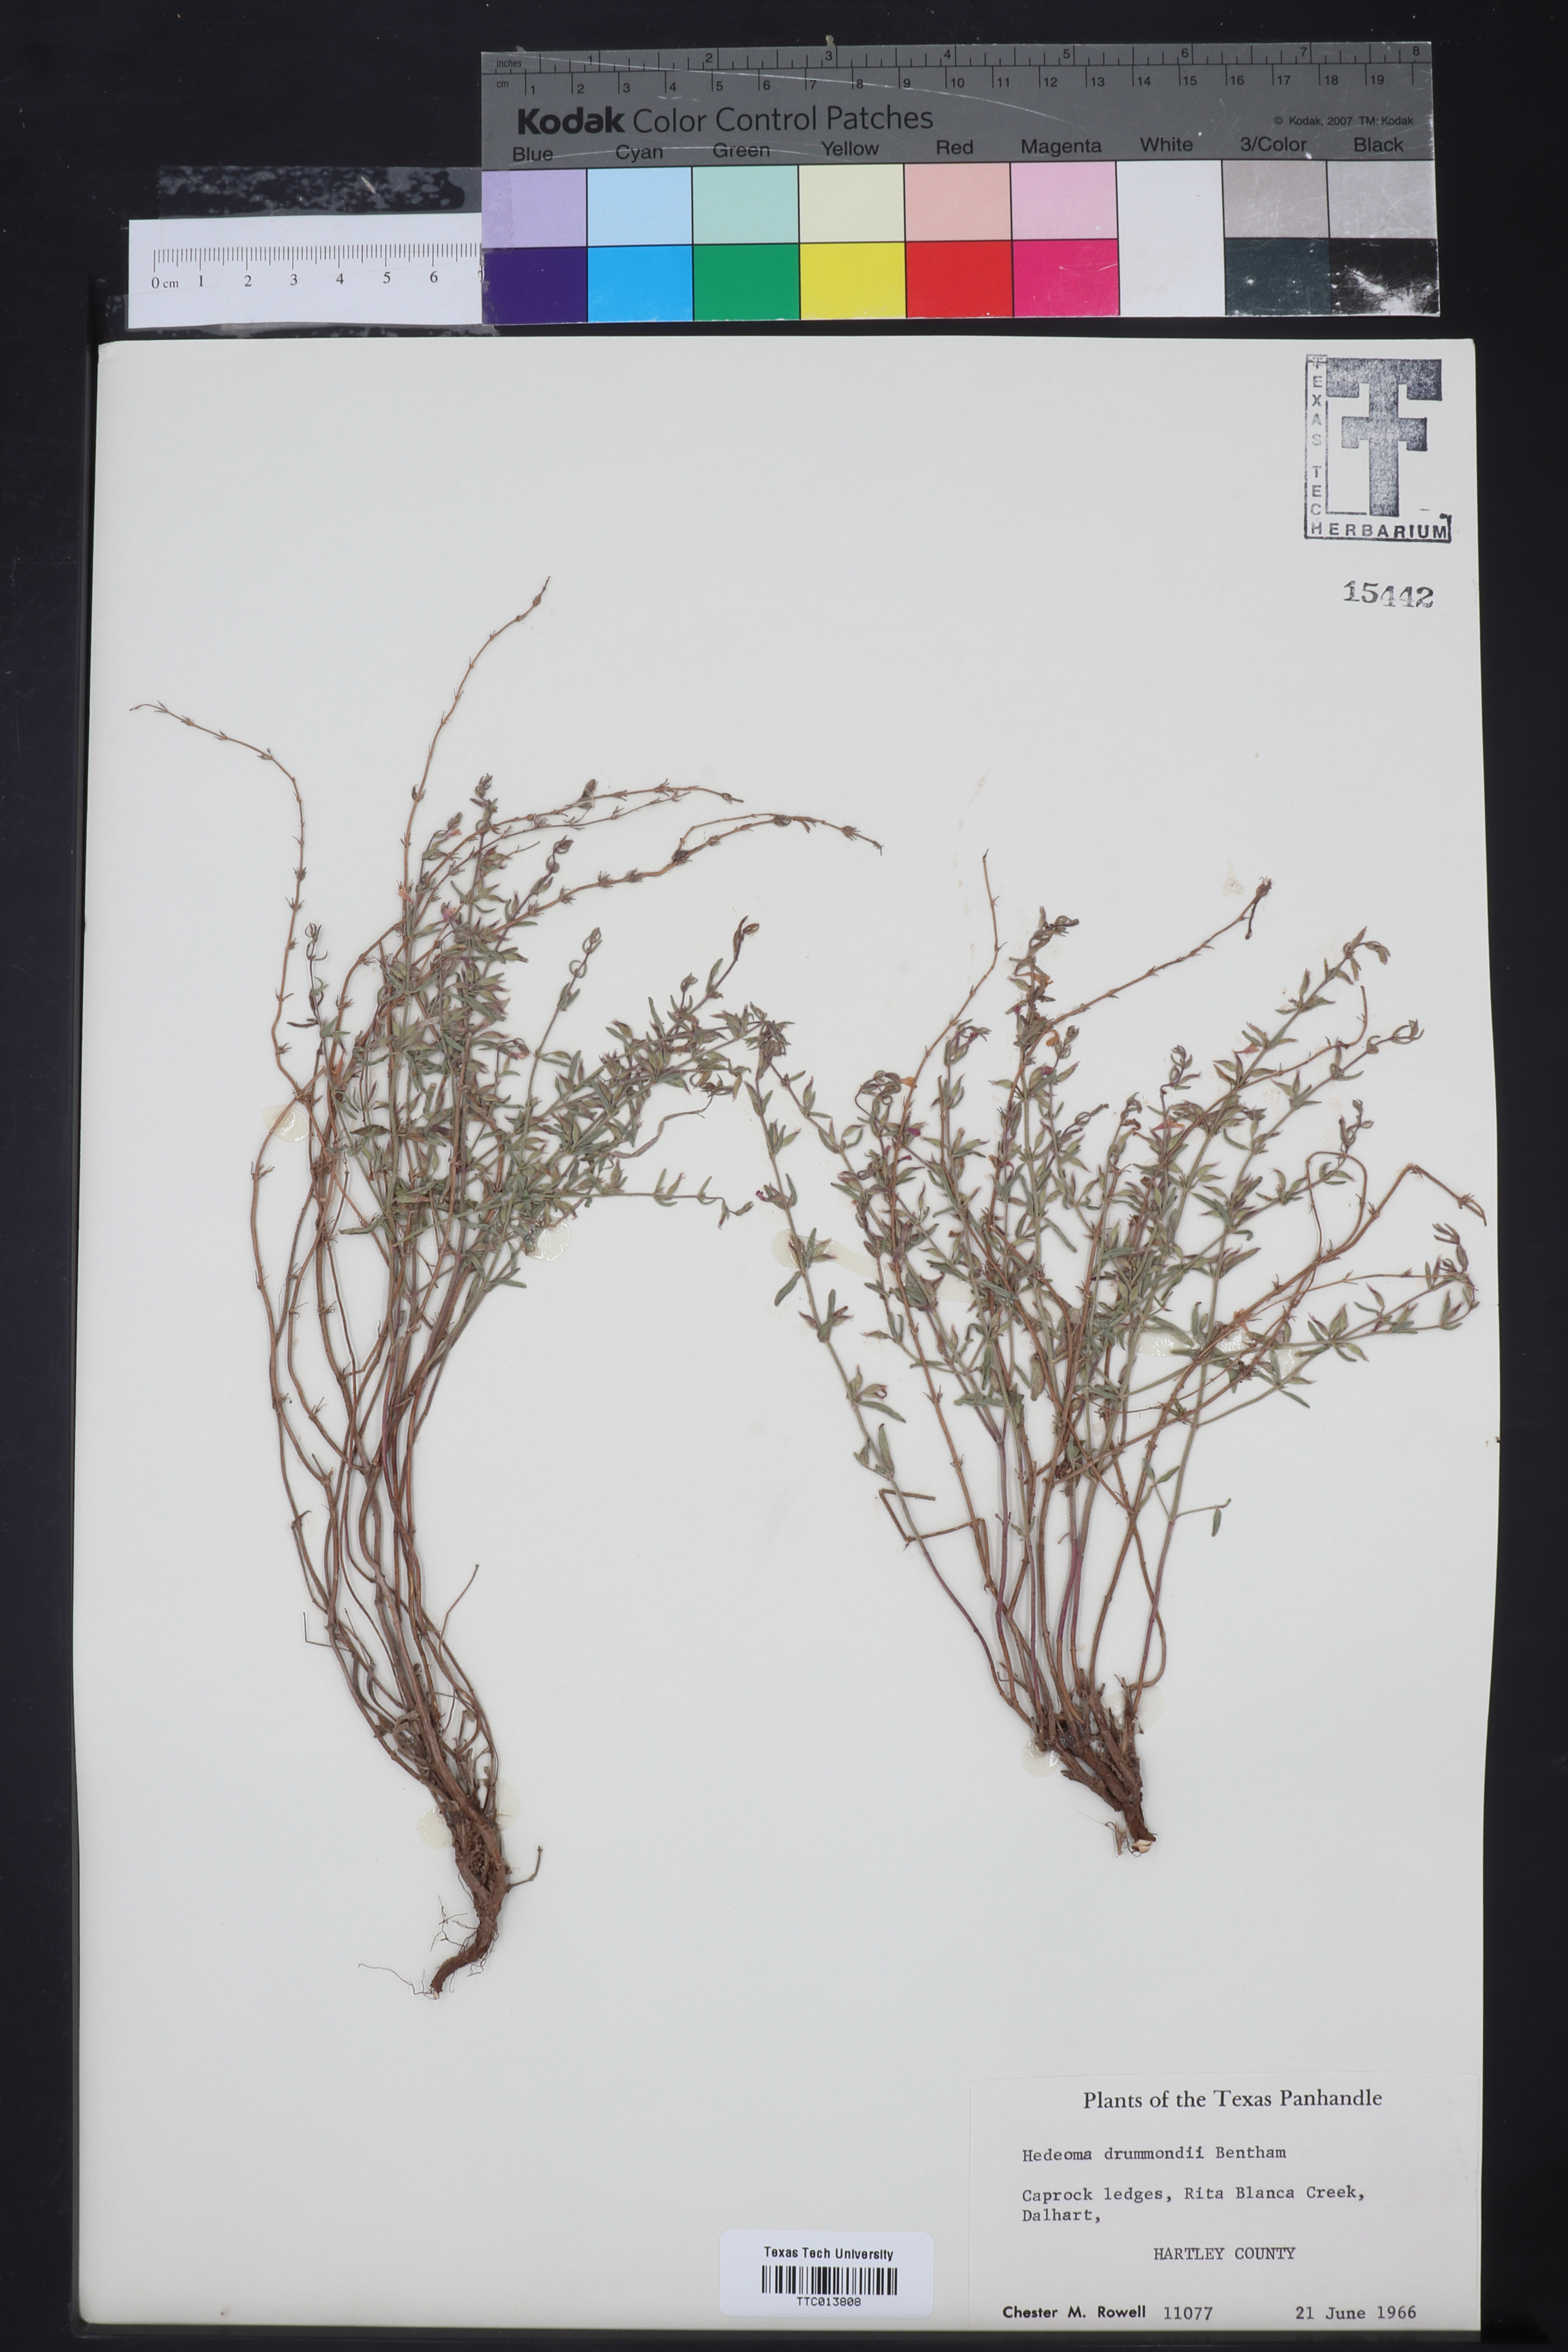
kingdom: Plantae
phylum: Tracheophyta
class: Magnoliopsida
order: Lamiales
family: Lamiaceae
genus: Hedeoma
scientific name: Hedeoma drummondii
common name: New mexico pennyroyal
